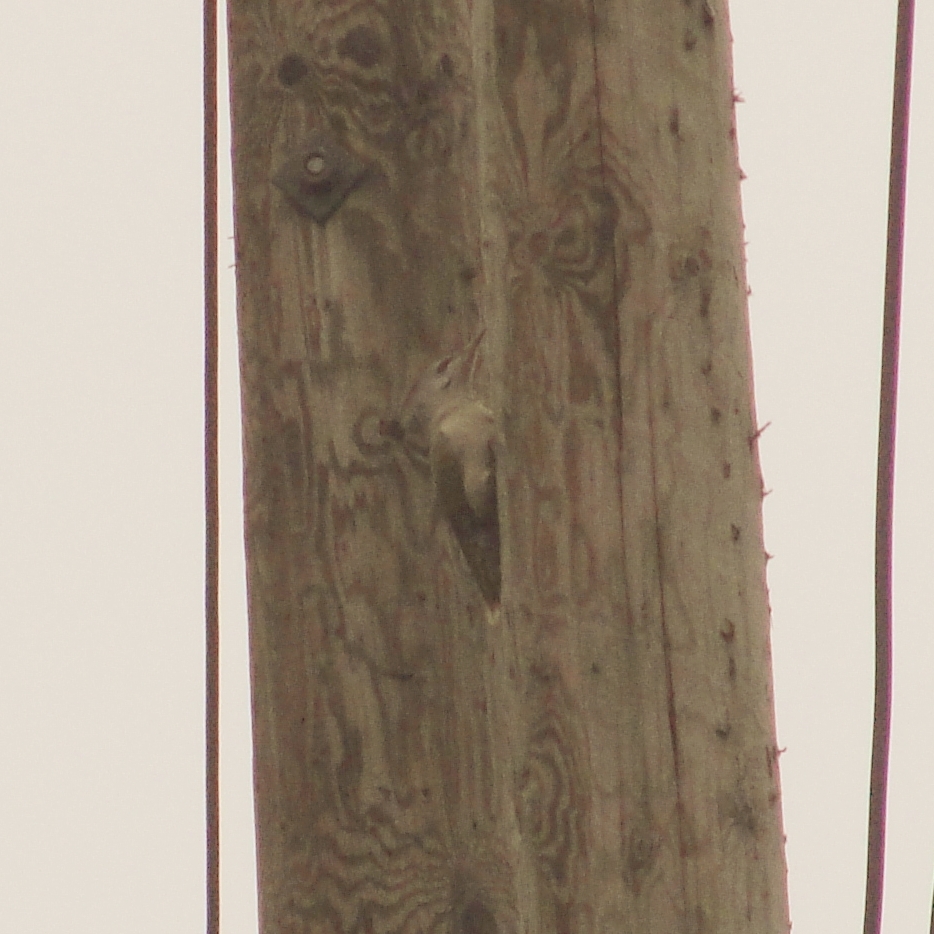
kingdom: Animalia
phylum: Chordata
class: Aves
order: Piciformes
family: Picidae
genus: Picus
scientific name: Picus canus
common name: Grey-headed woodpecker
